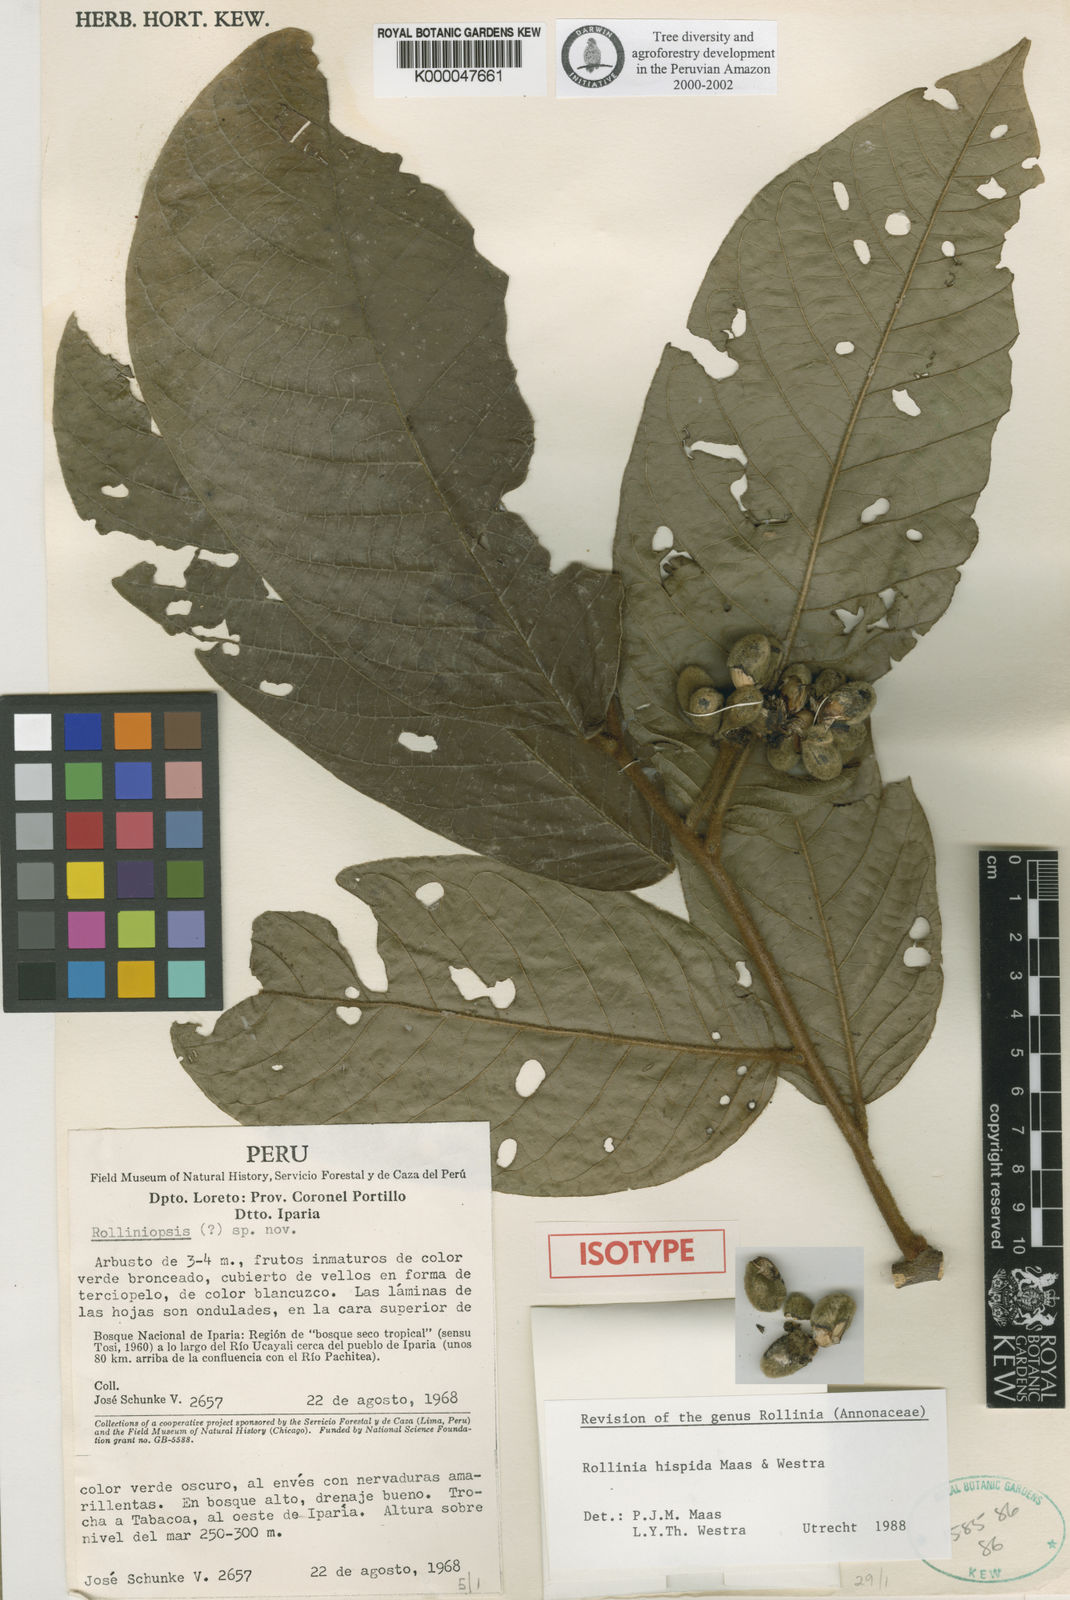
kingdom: Plantae
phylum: Tracheophyta
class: Magnoliopsida
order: Magnoliales
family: Annonaceae
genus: Annona
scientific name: Annona hispida
